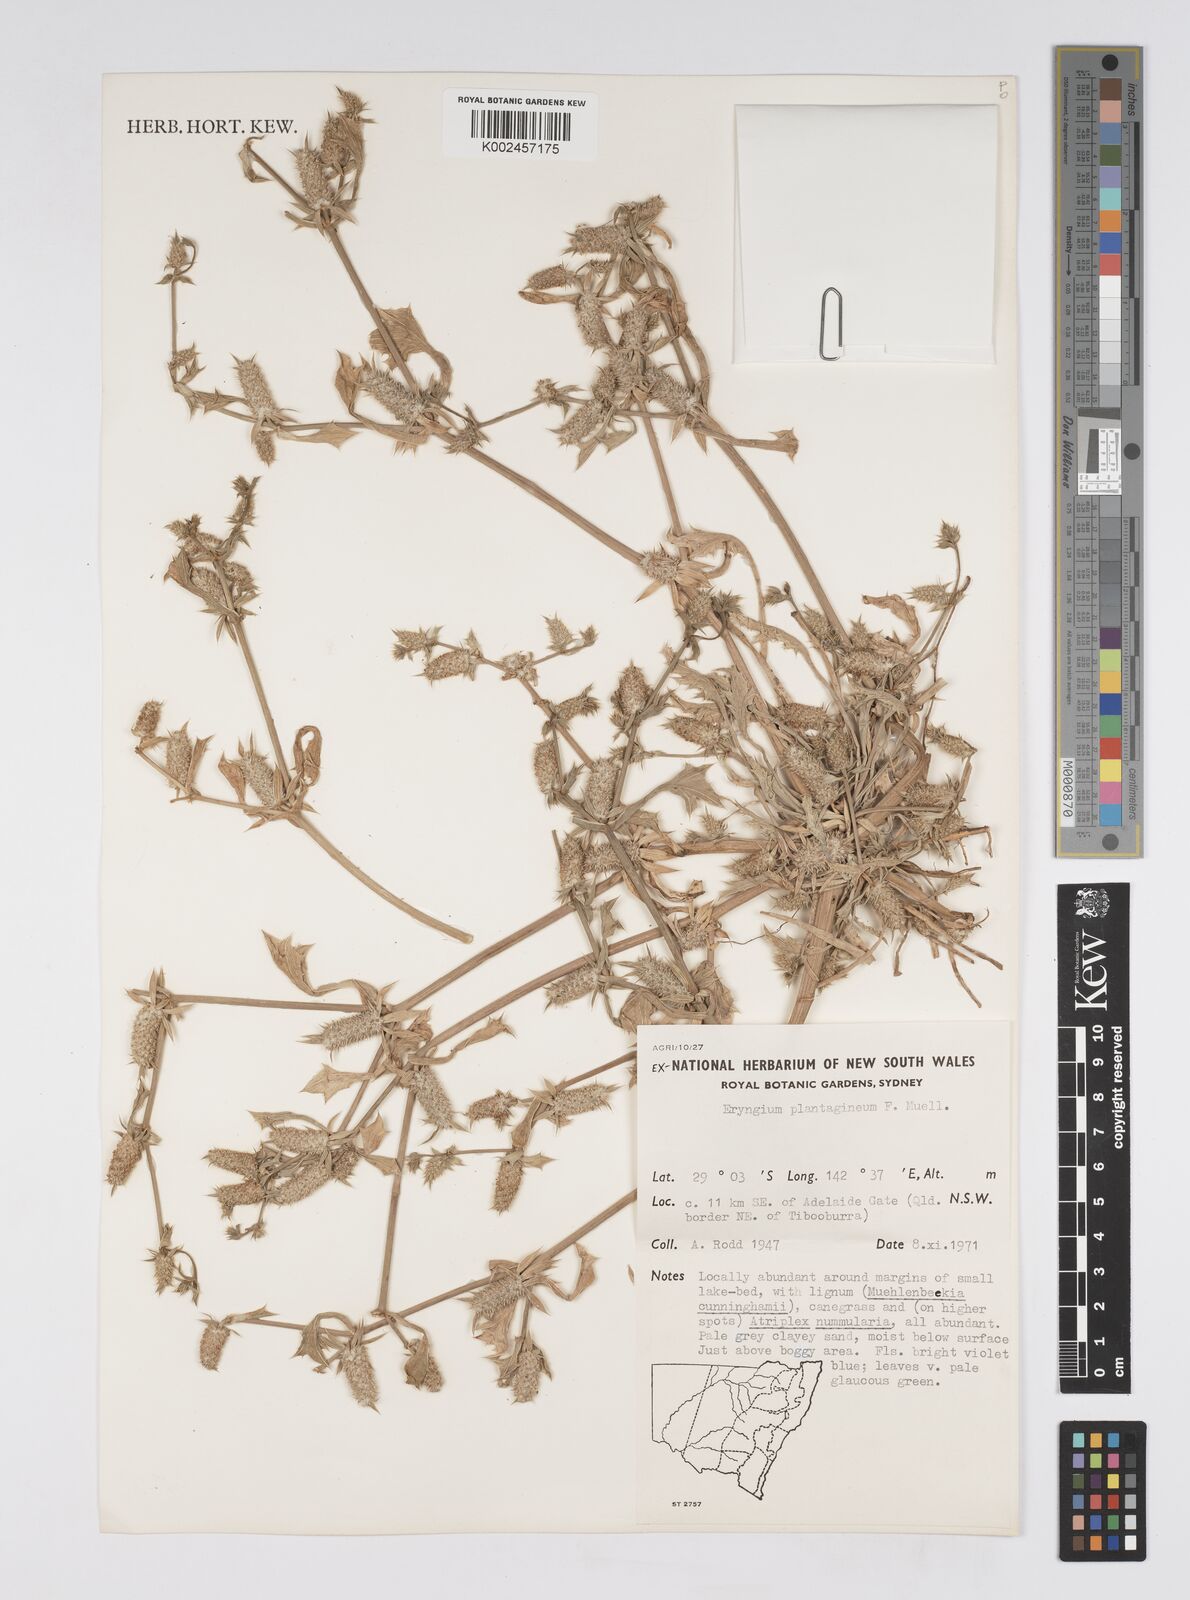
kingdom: Plantae
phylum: Tracheophyta
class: Magnoliopsida
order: Apiales
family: Apiaceae
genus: Eryngium
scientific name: Eryngium plantagineum
